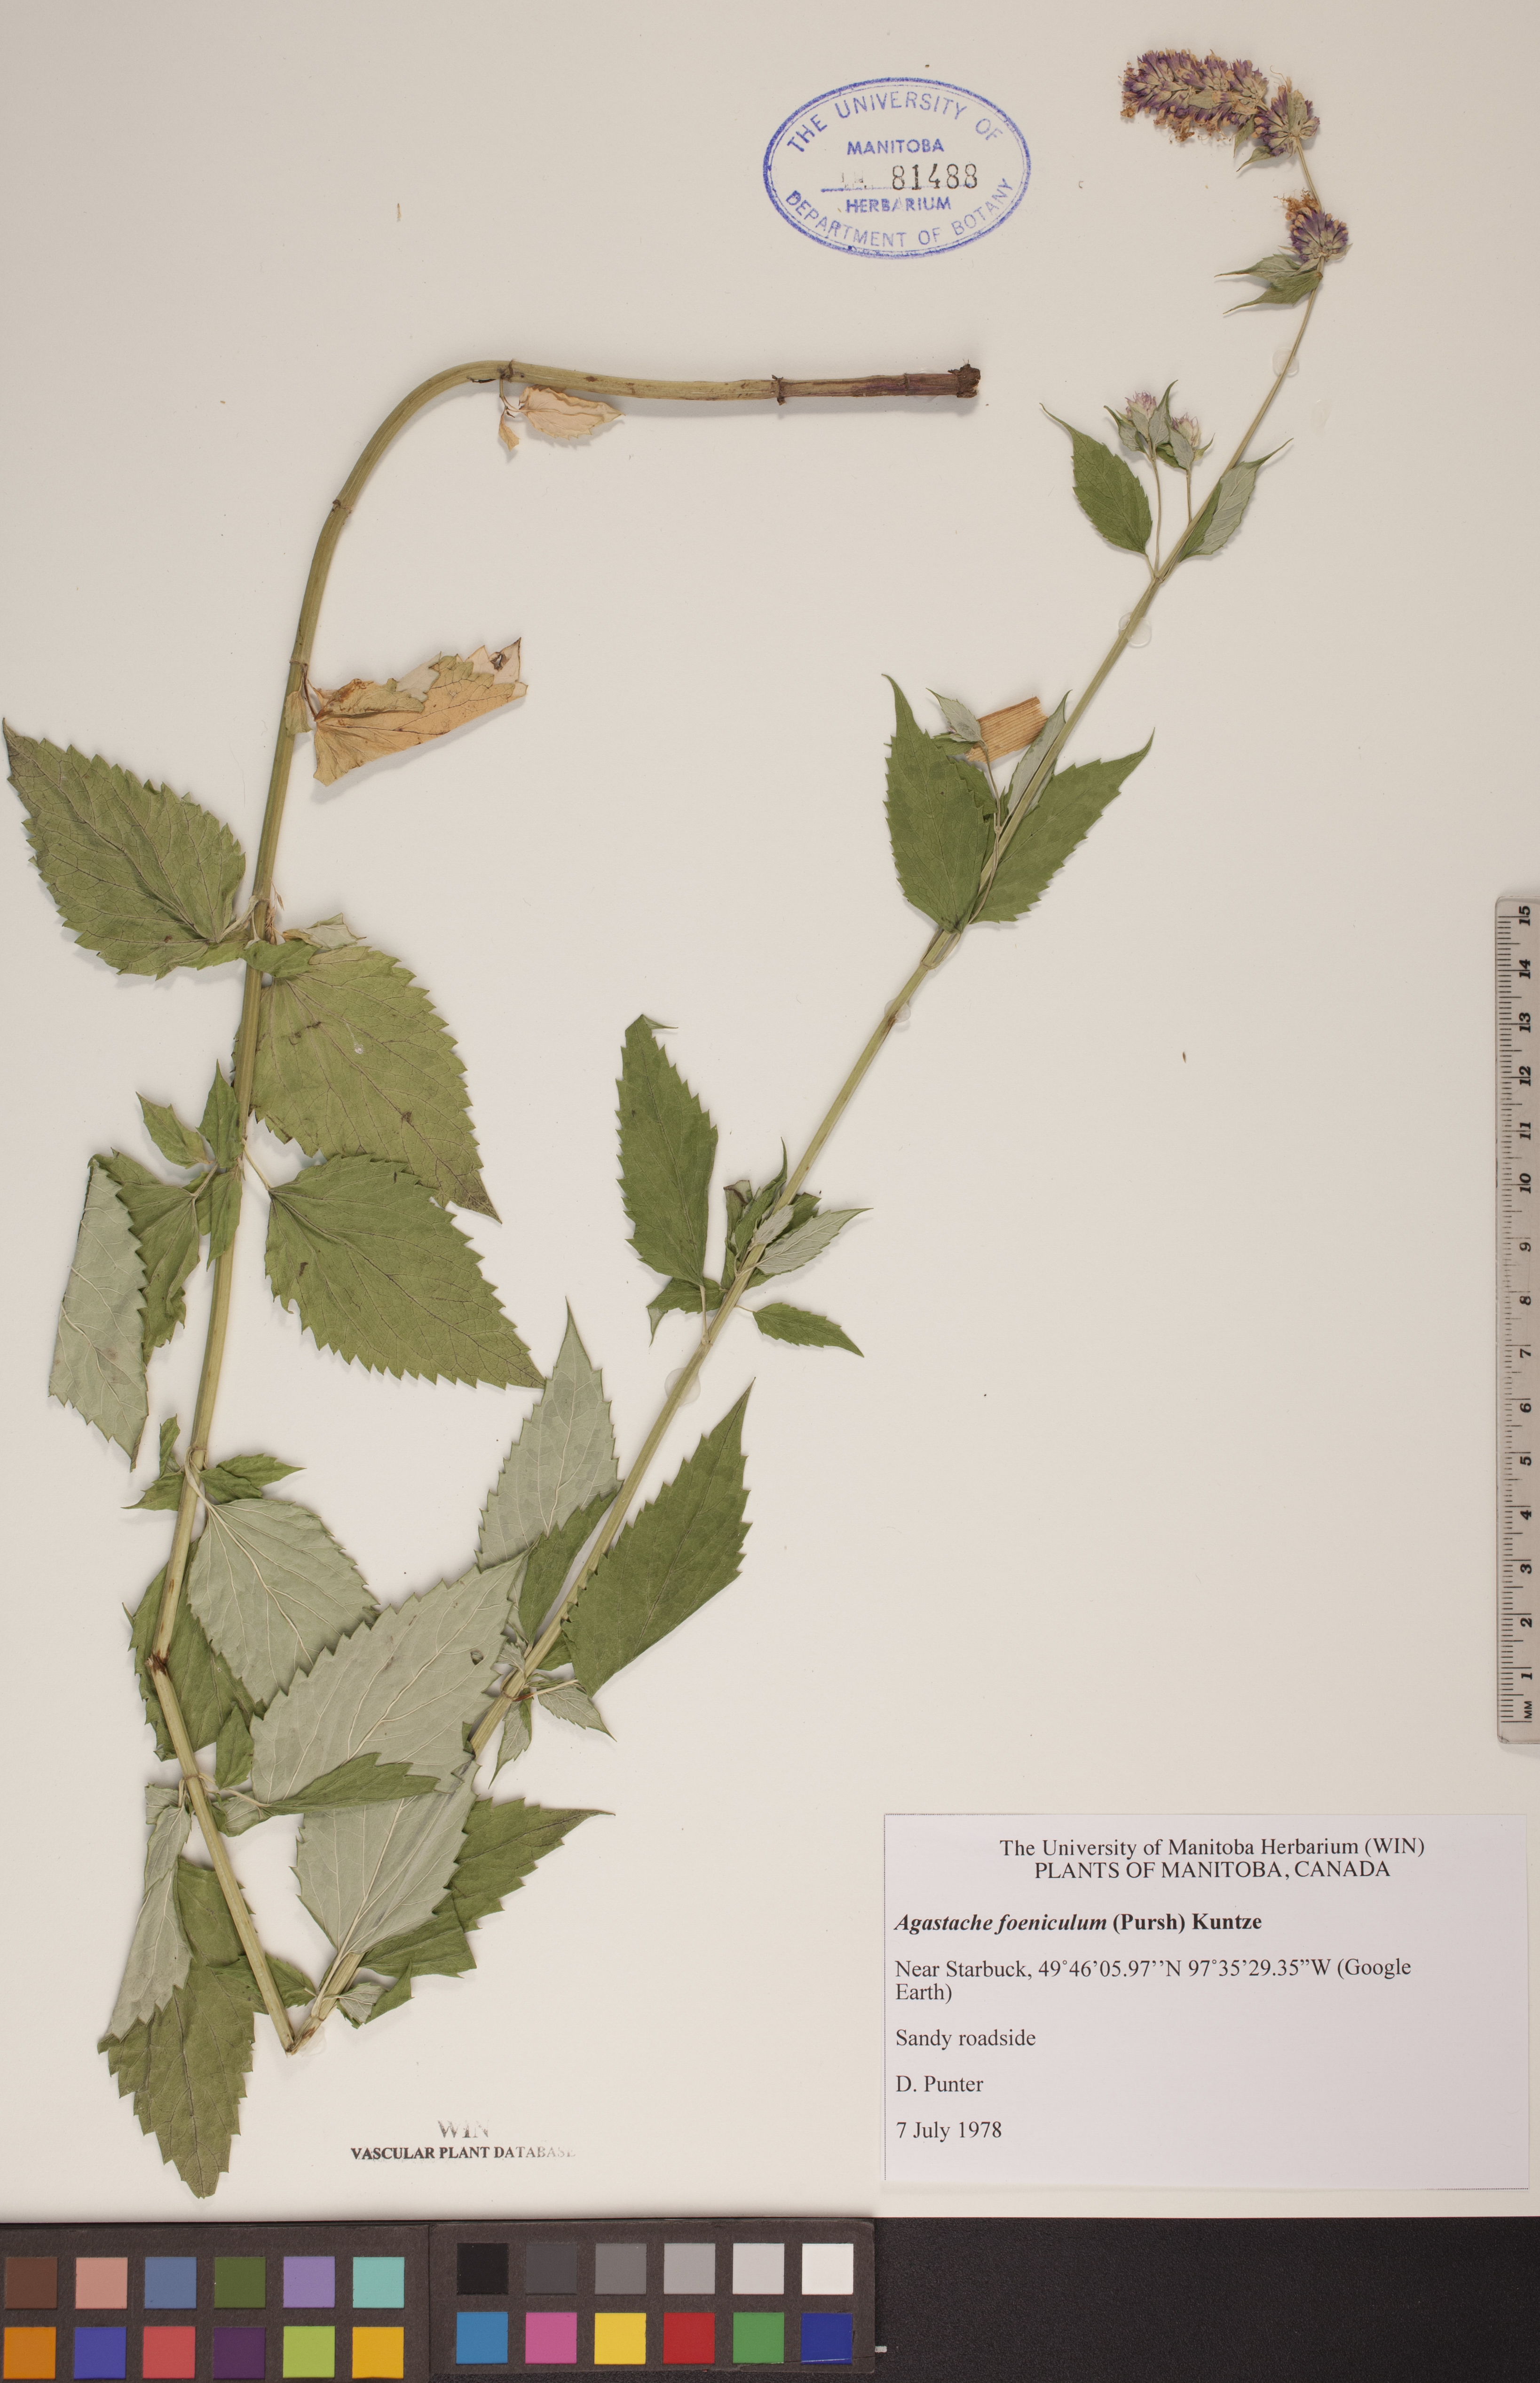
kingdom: Plantae
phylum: Tracheophyta
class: Magnoliopsida
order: Lamiales
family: Lamiaceae
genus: Agastache
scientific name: Agastache foeniculum
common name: Anise hyssop
